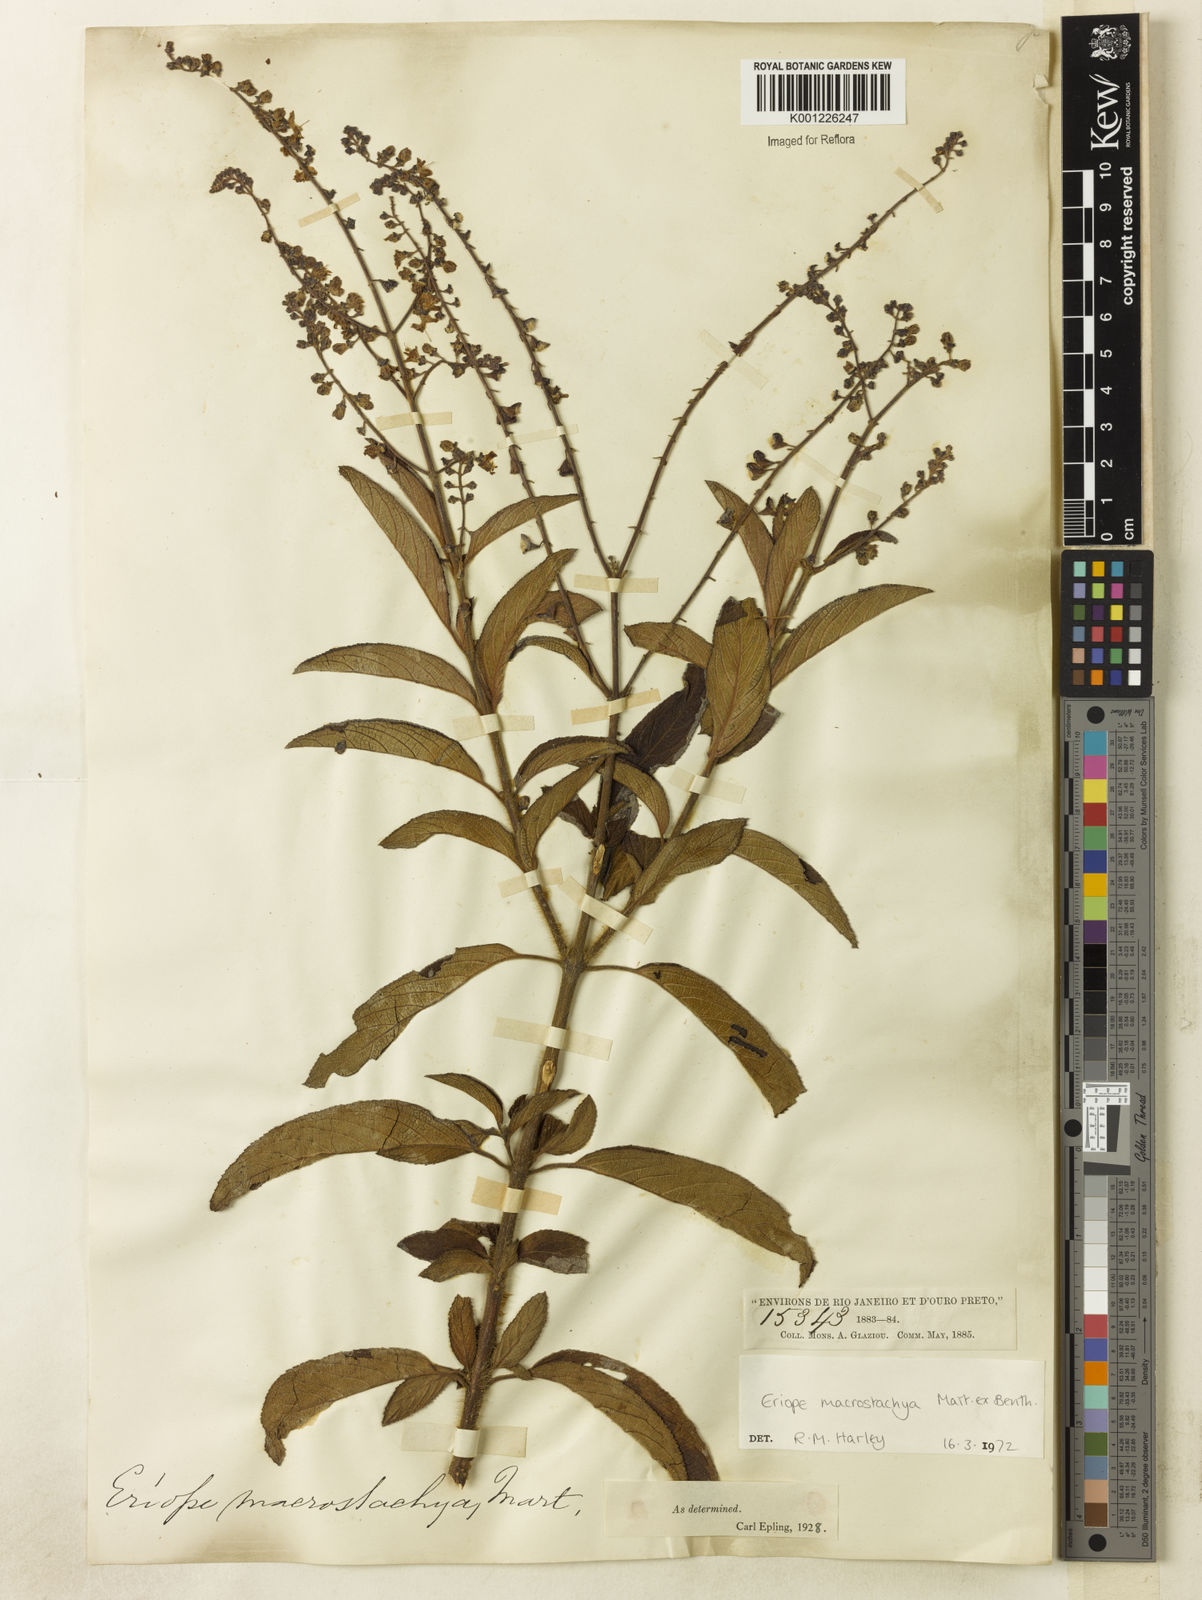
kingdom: Plantae
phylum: Tracheophyta
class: Magnoliopsida
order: Lamiales
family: Lamiaceae
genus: Eriope
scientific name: Eriope macrostachya
